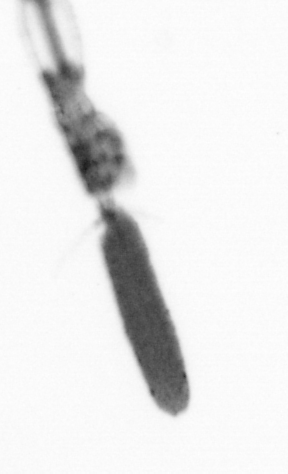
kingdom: Animalia
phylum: Arthropoda
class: Copepoda
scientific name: Copepoda
